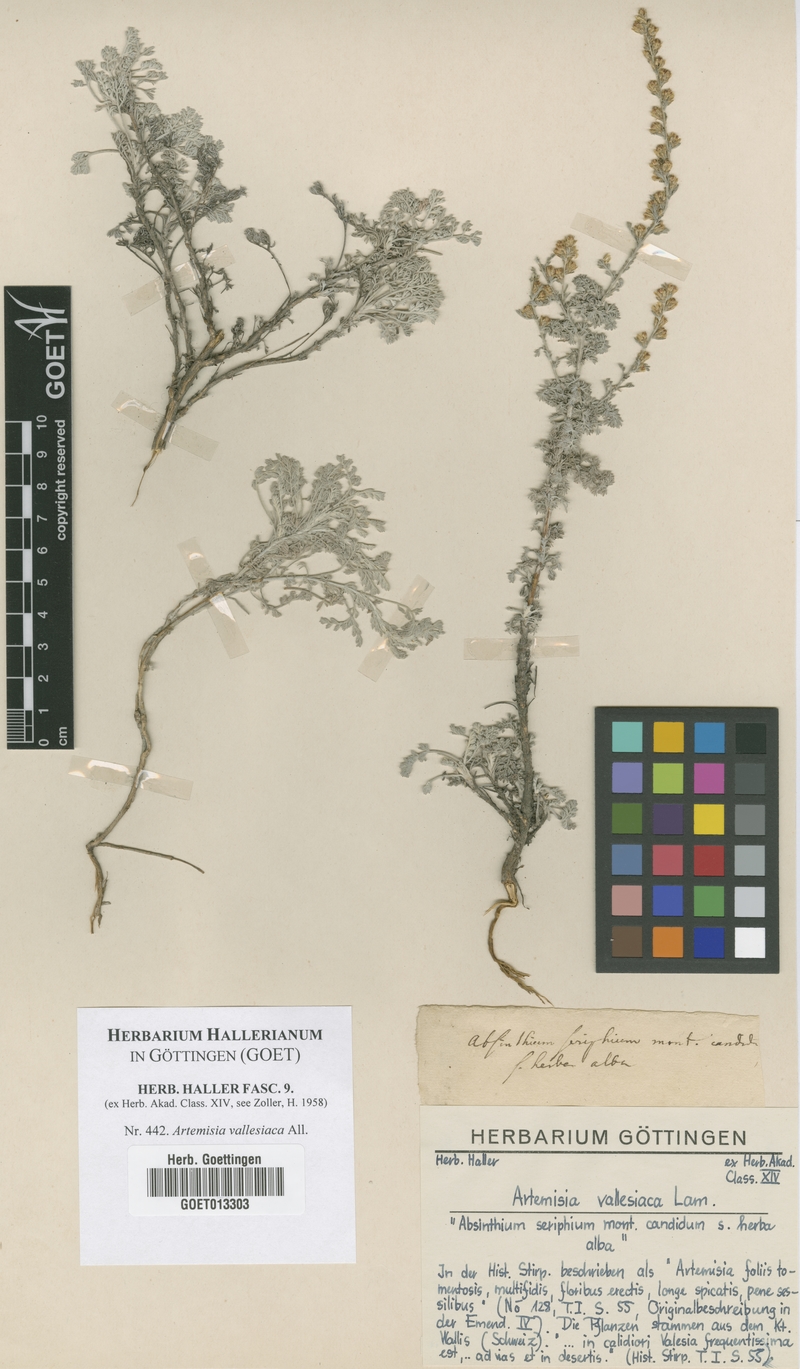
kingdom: Plantae
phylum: Tracheophyta
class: Magnoliopsida
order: Asterales
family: Asteraceae
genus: Artemisia
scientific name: Artemisia vallesiaca
